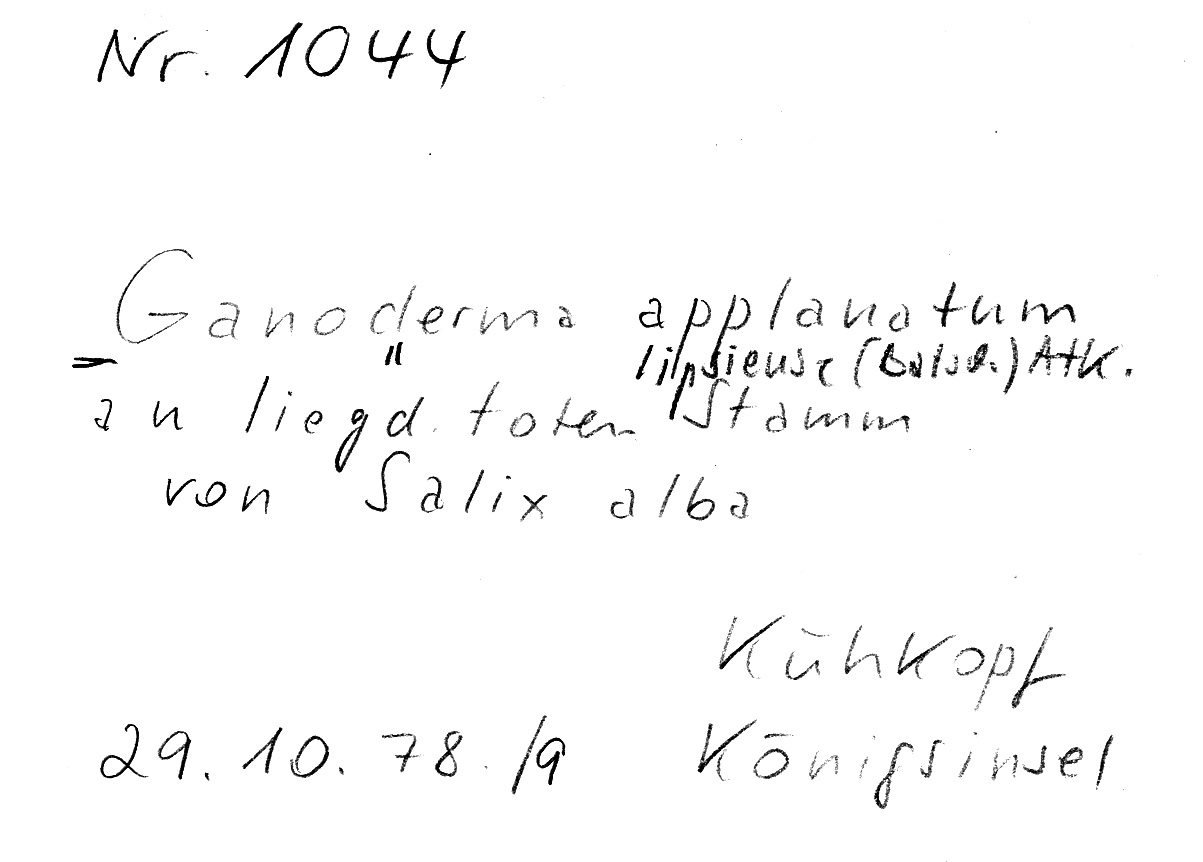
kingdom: Fungi
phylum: Basidiomycota
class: Agaricomycetes
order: Polyporales
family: Polyporaceae
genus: Ganoderma
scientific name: Ganoderma applanatum
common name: Artist's bracket
